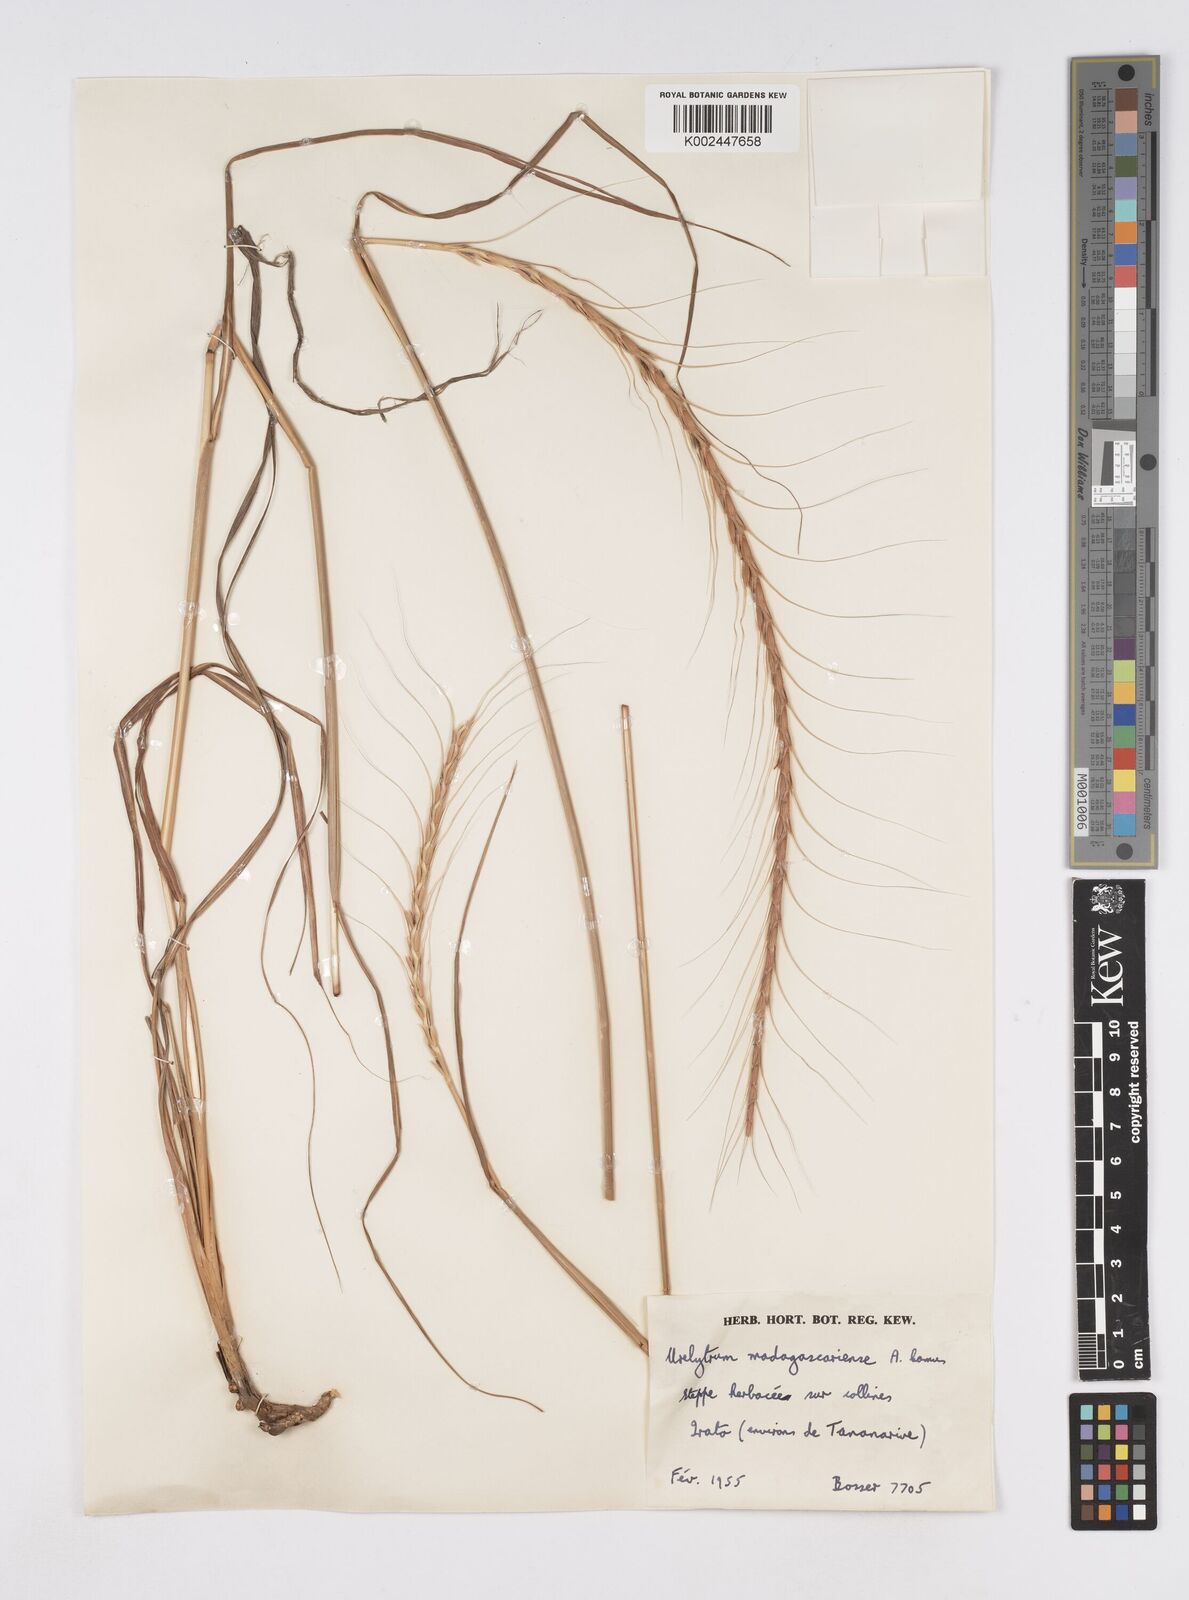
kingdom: Plantae
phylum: Tracheophyta
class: Liliopsida
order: Poales
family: Poaceae
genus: Urelytrum
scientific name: Urelytrum agropyroides
